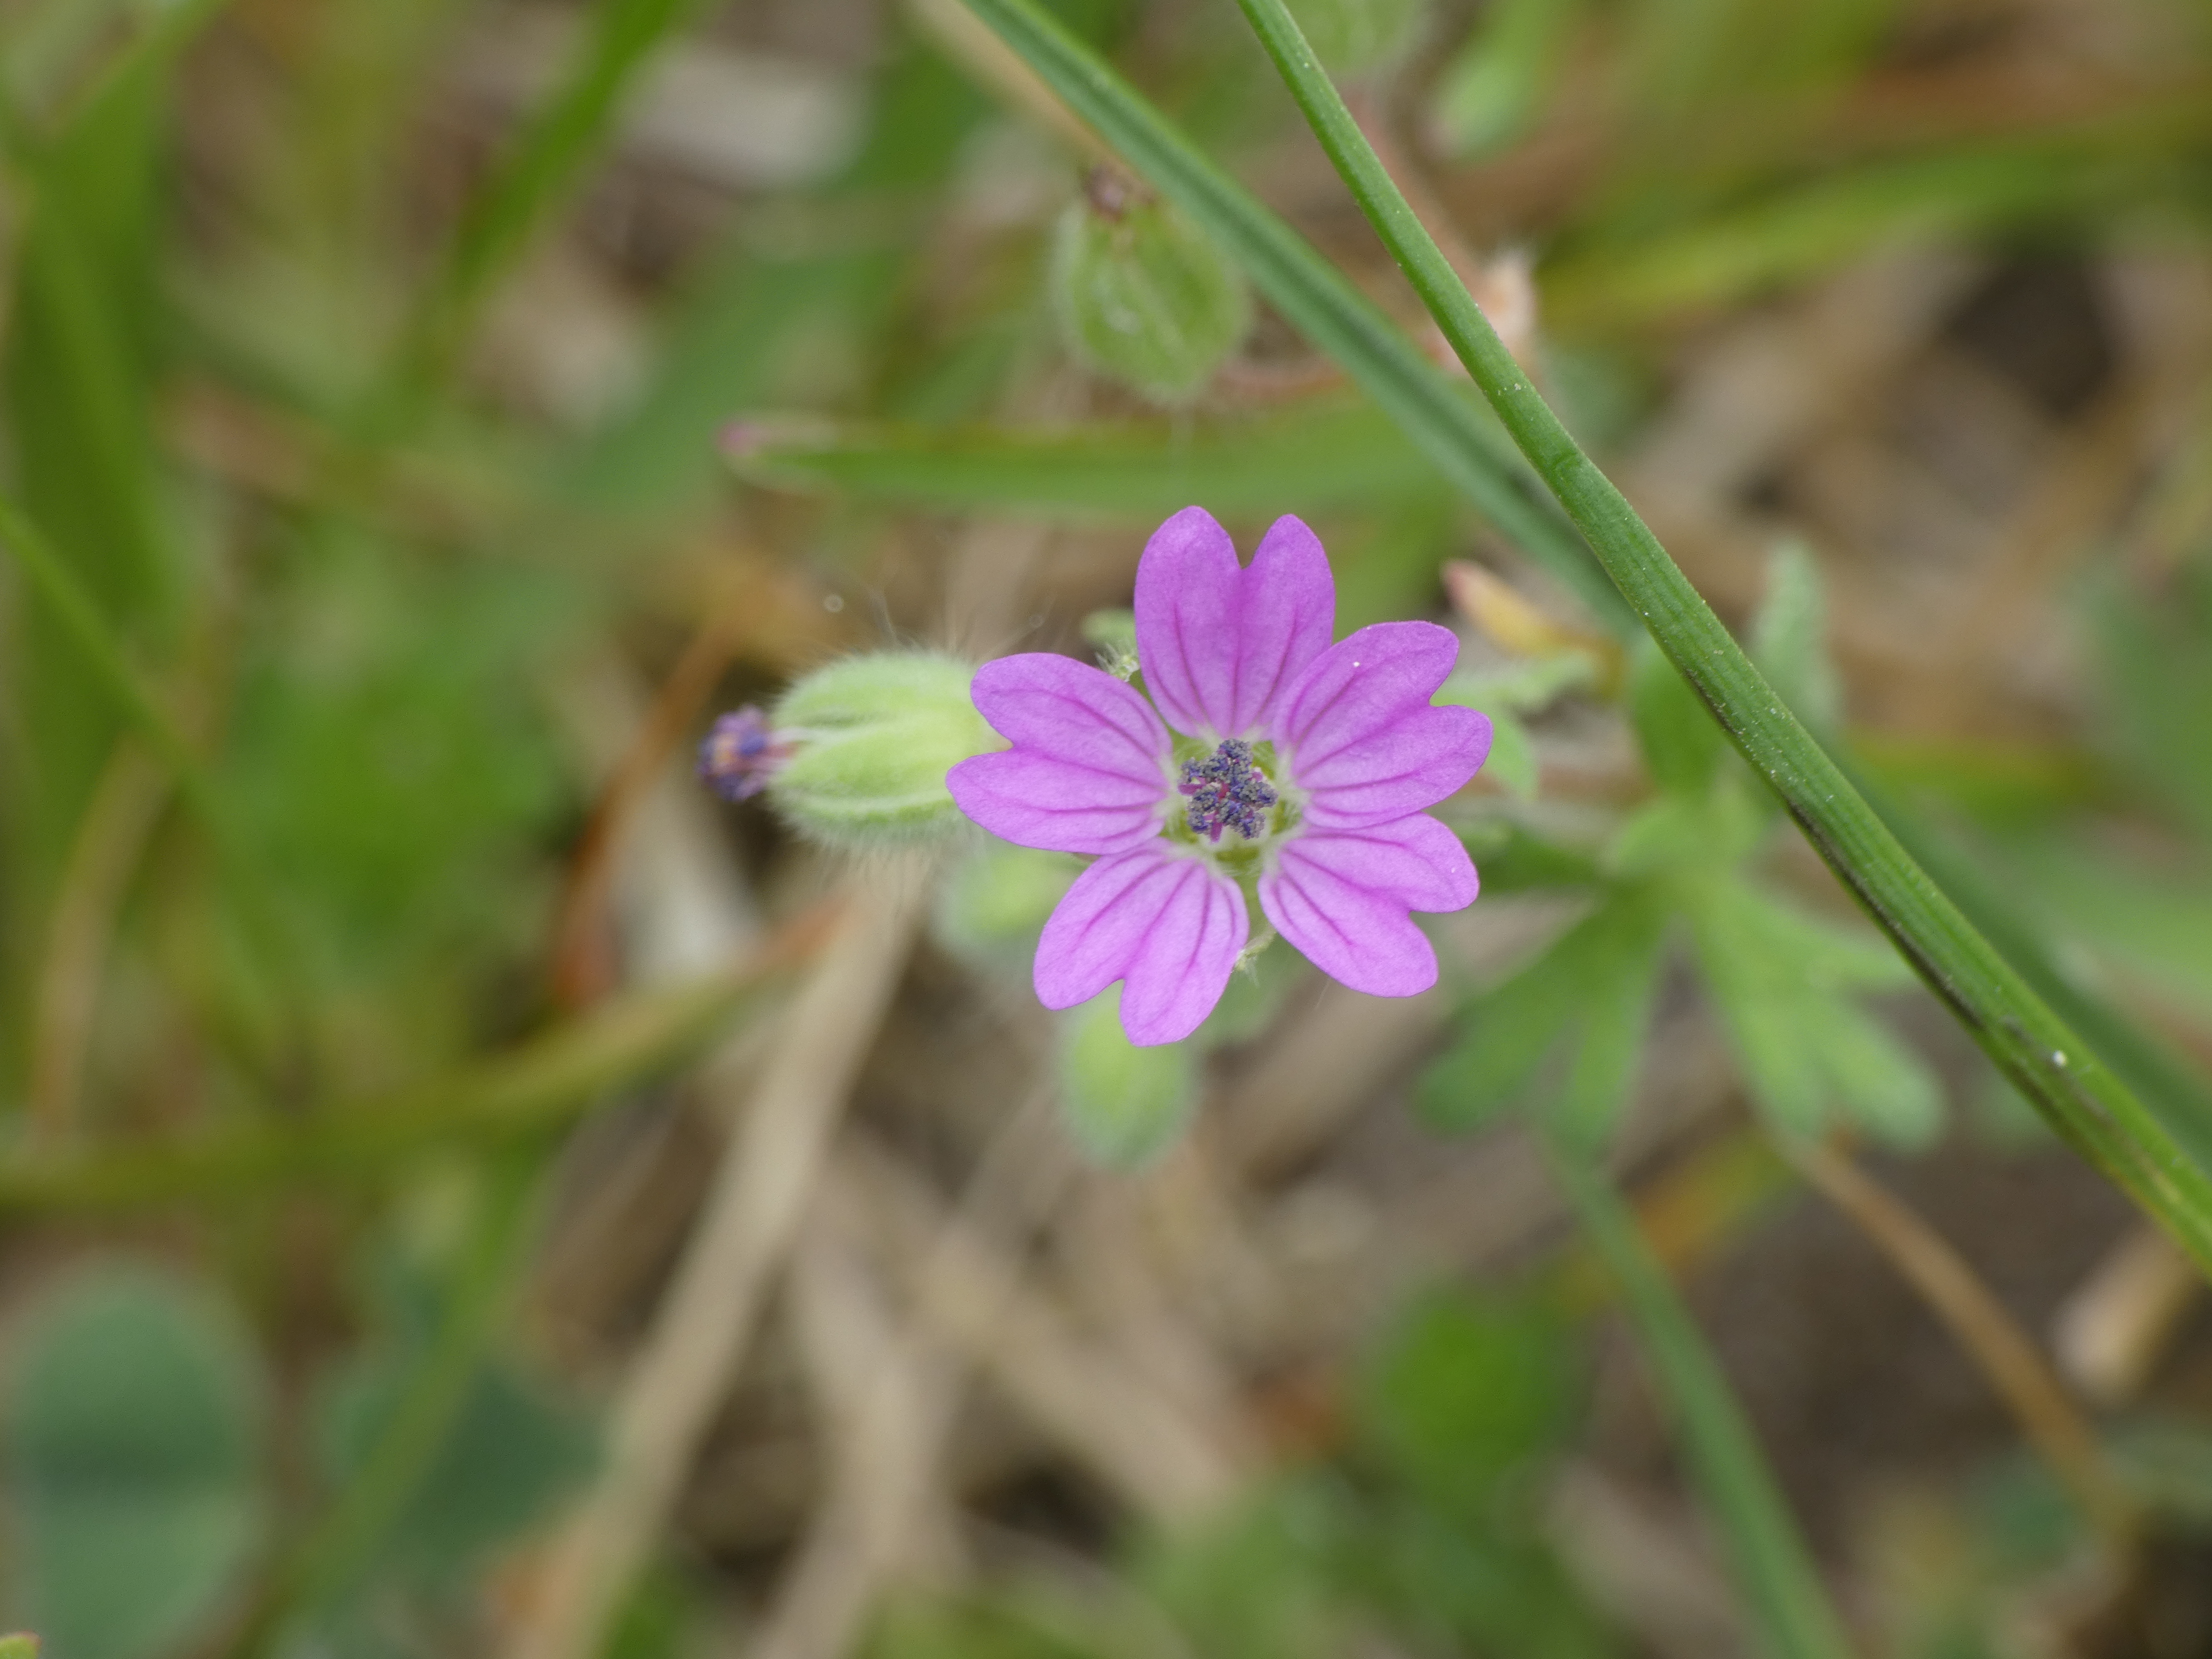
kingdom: Plantae
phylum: Tracheophyta
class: Magnoliopsida
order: Geraniales
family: Geraniaceae
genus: Geranium
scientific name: Geranium molle
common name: Blød storkenæb
